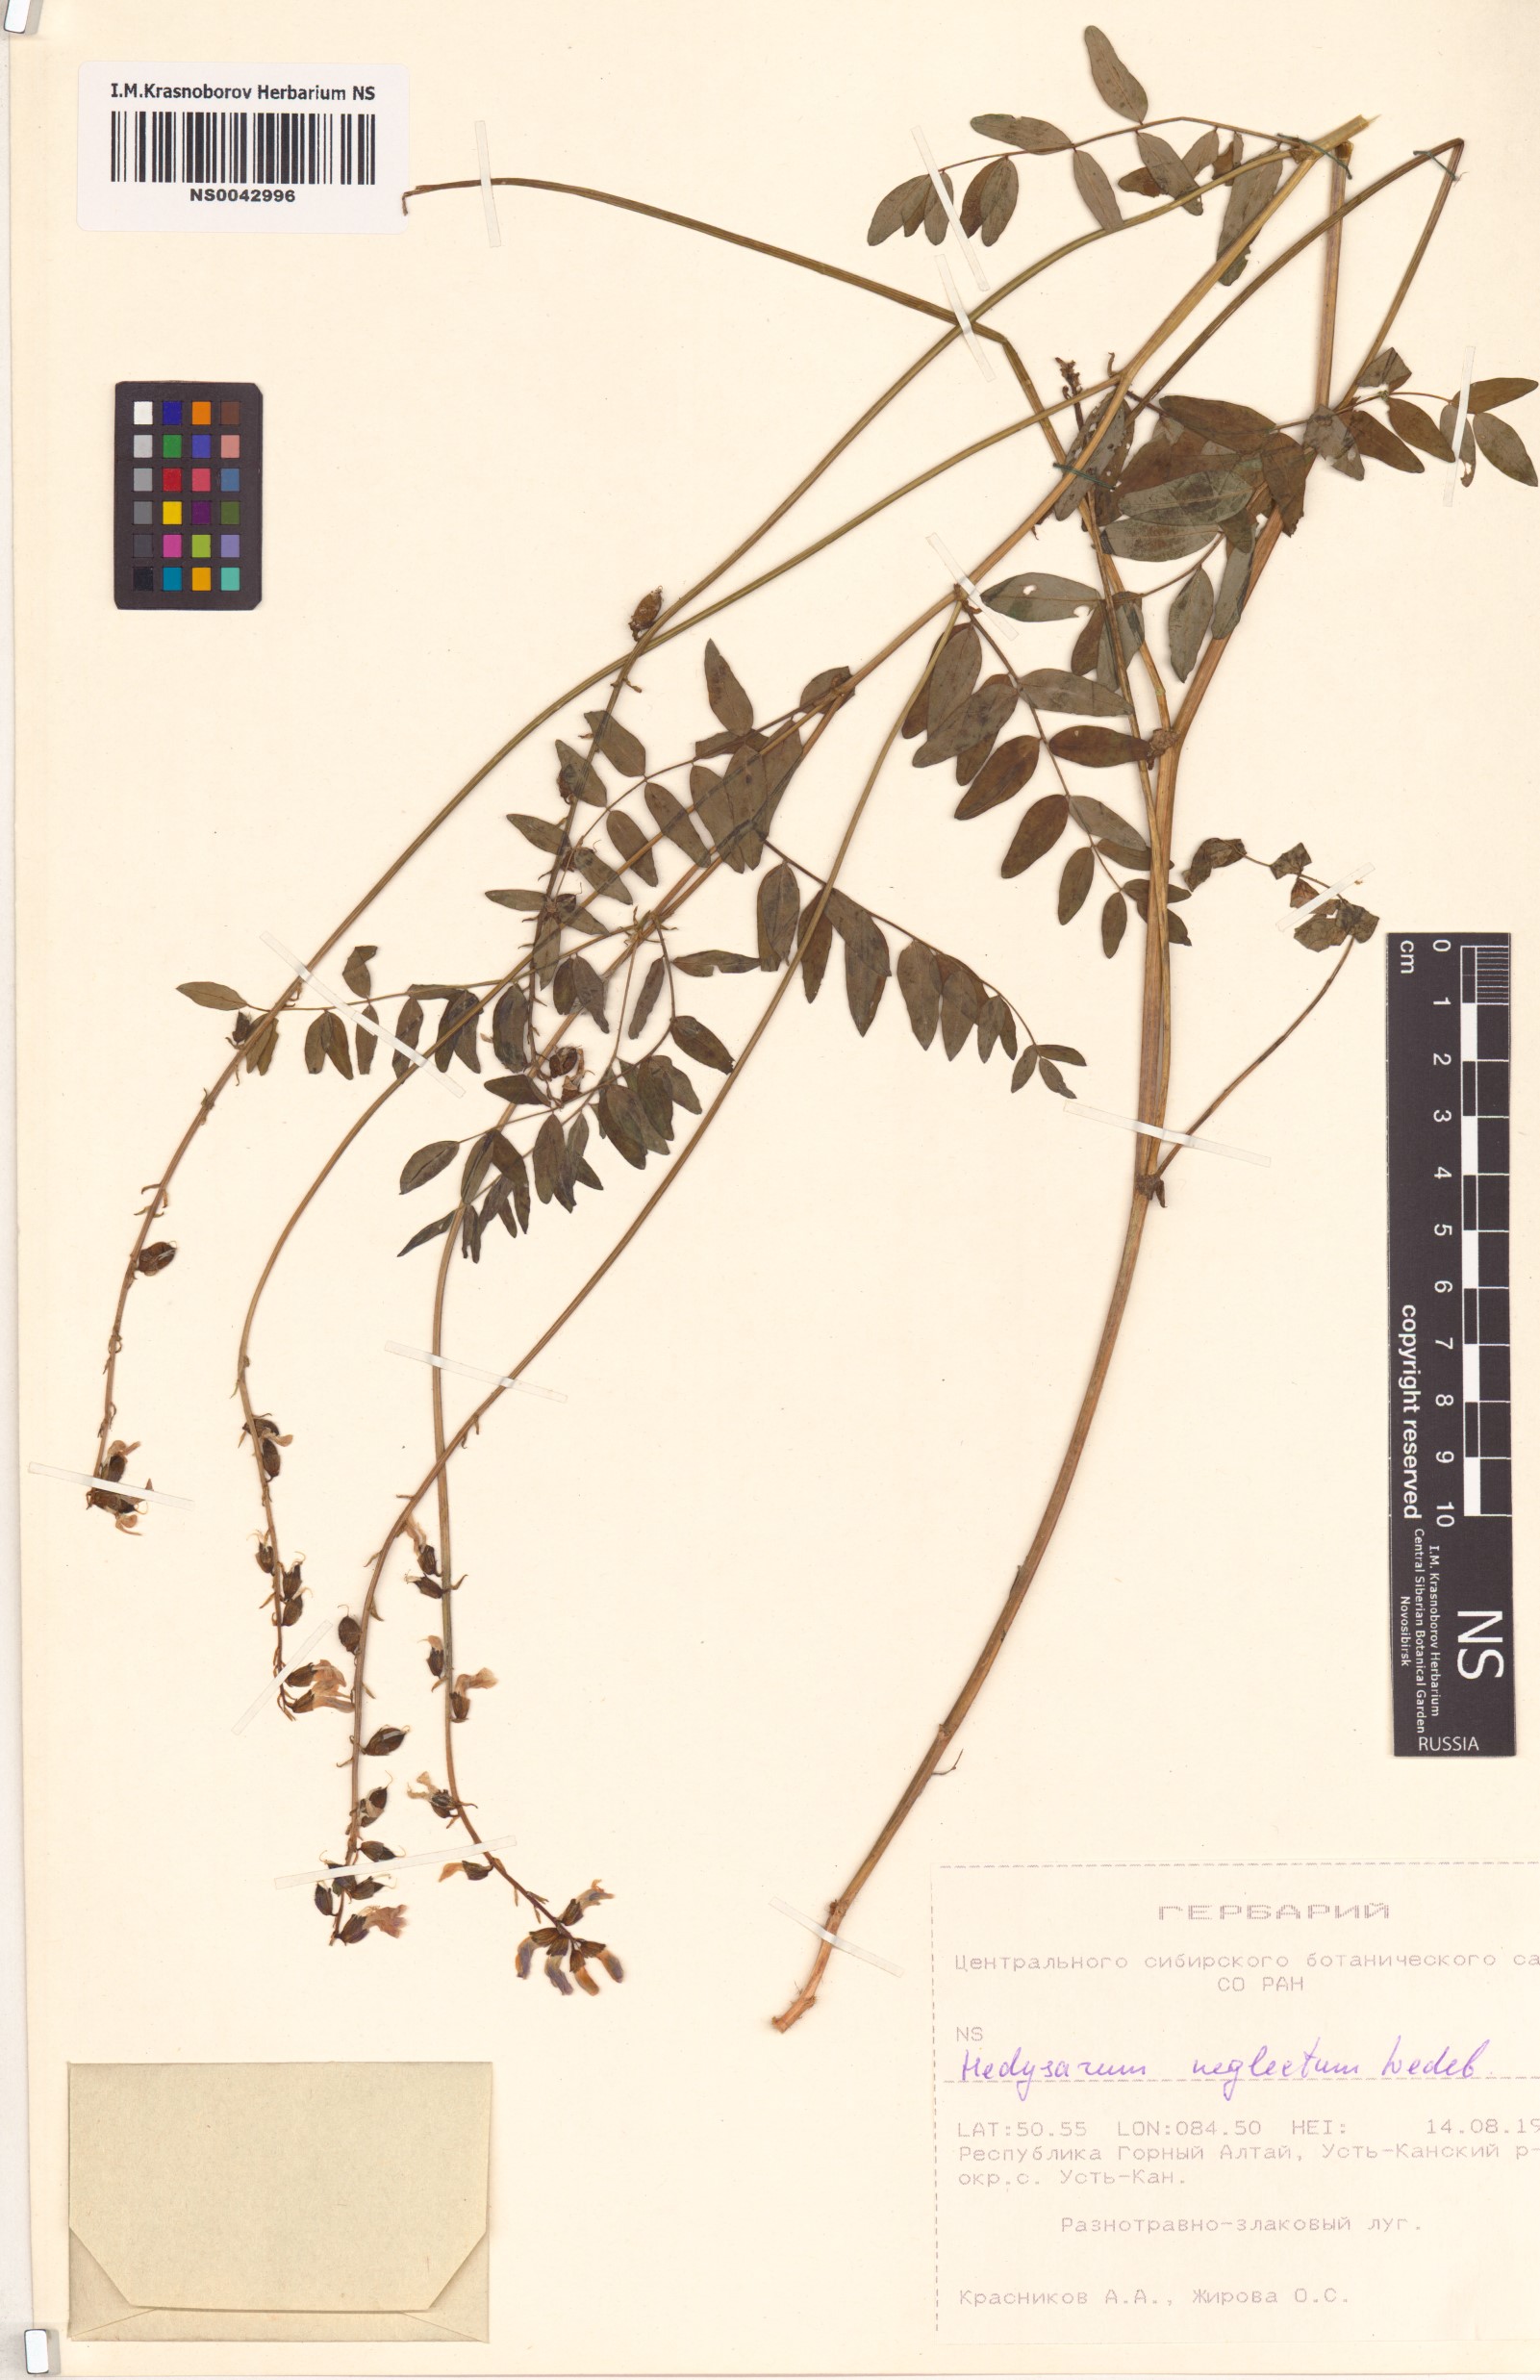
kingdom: Plantae
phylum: Tracheophyta
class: Magnoliopsida
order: Fabales
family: Fabaceae
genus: Hedysarum
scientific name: Hedysarum neglectum
